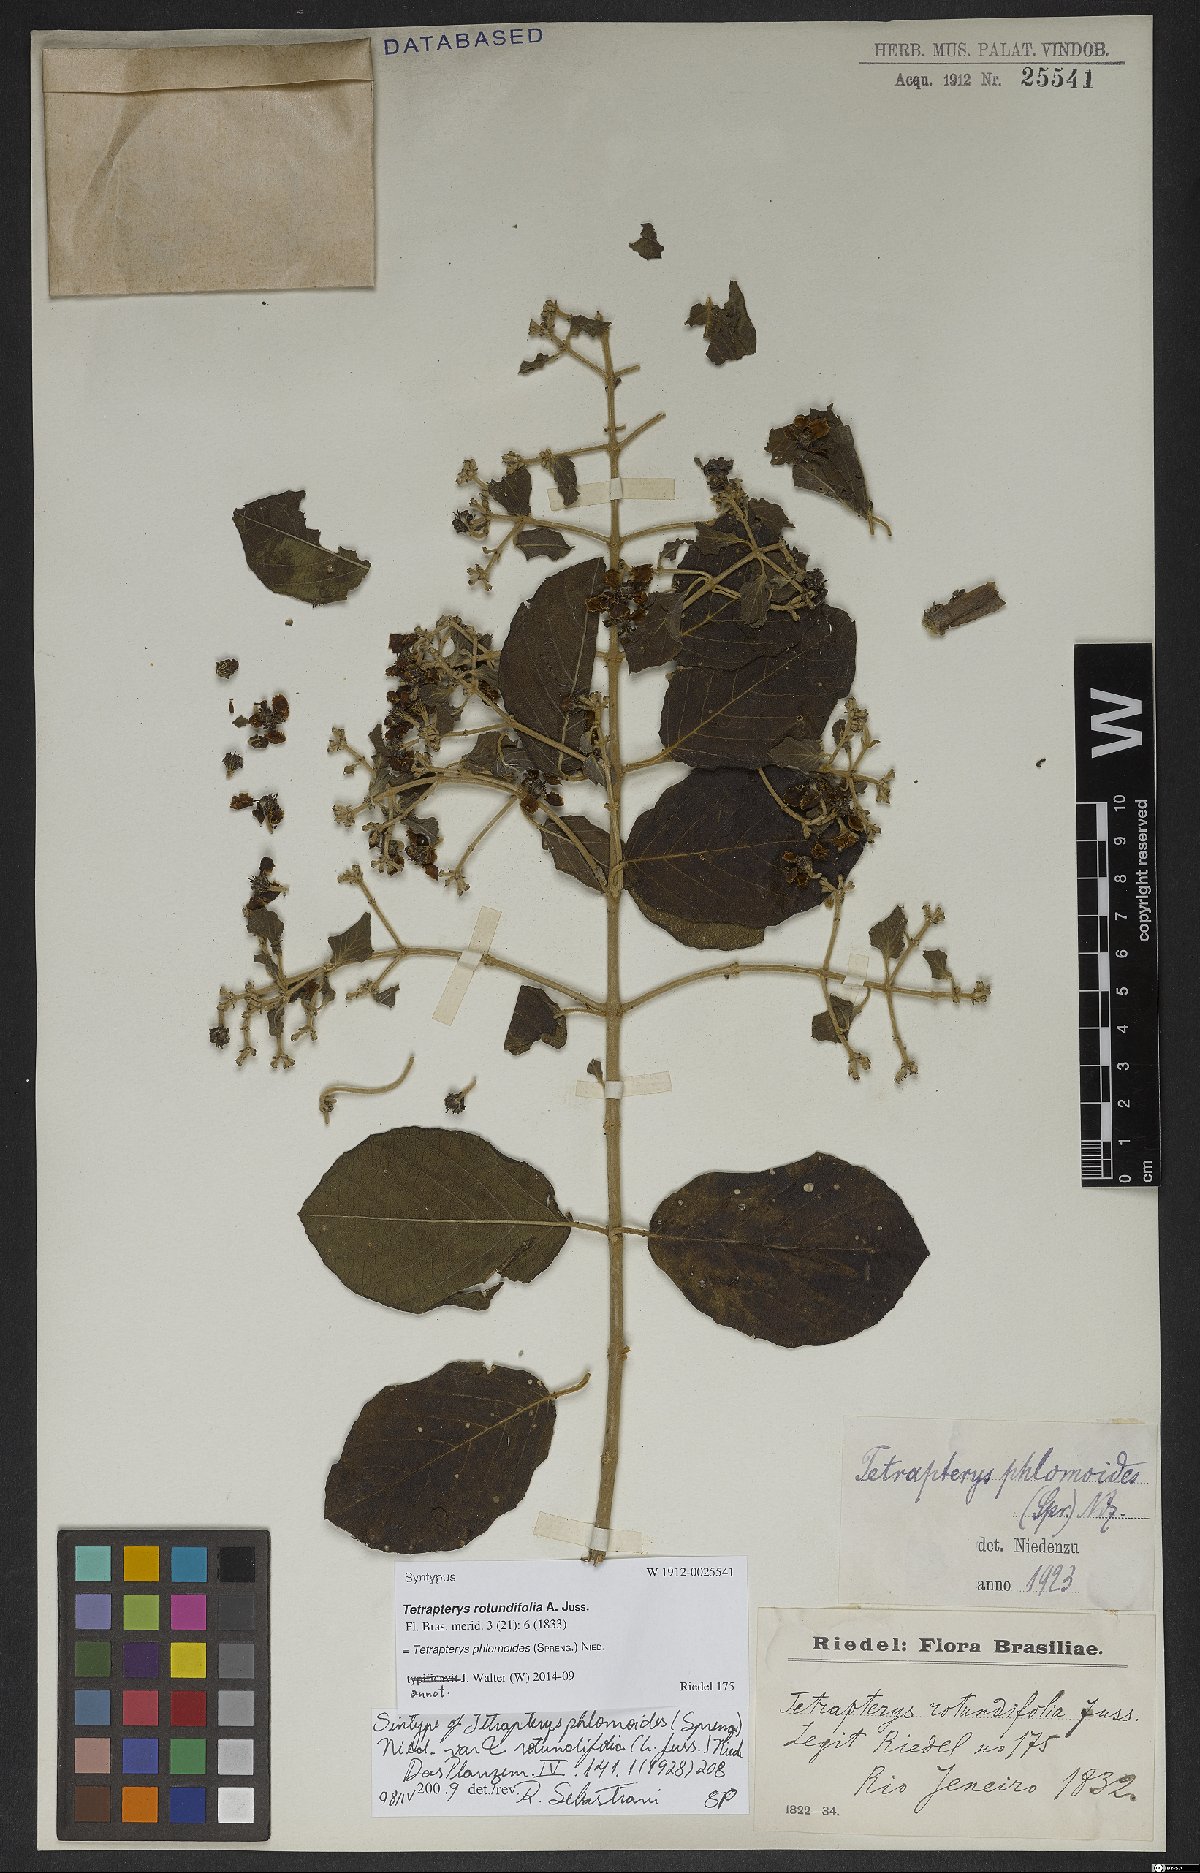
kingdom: Plantae
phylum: Tracheophyta
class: Magnoliopsida
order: Malpighiales
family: Malpighiaceae
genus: Tetrapterys
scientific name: Tetrapterys phlomoides
